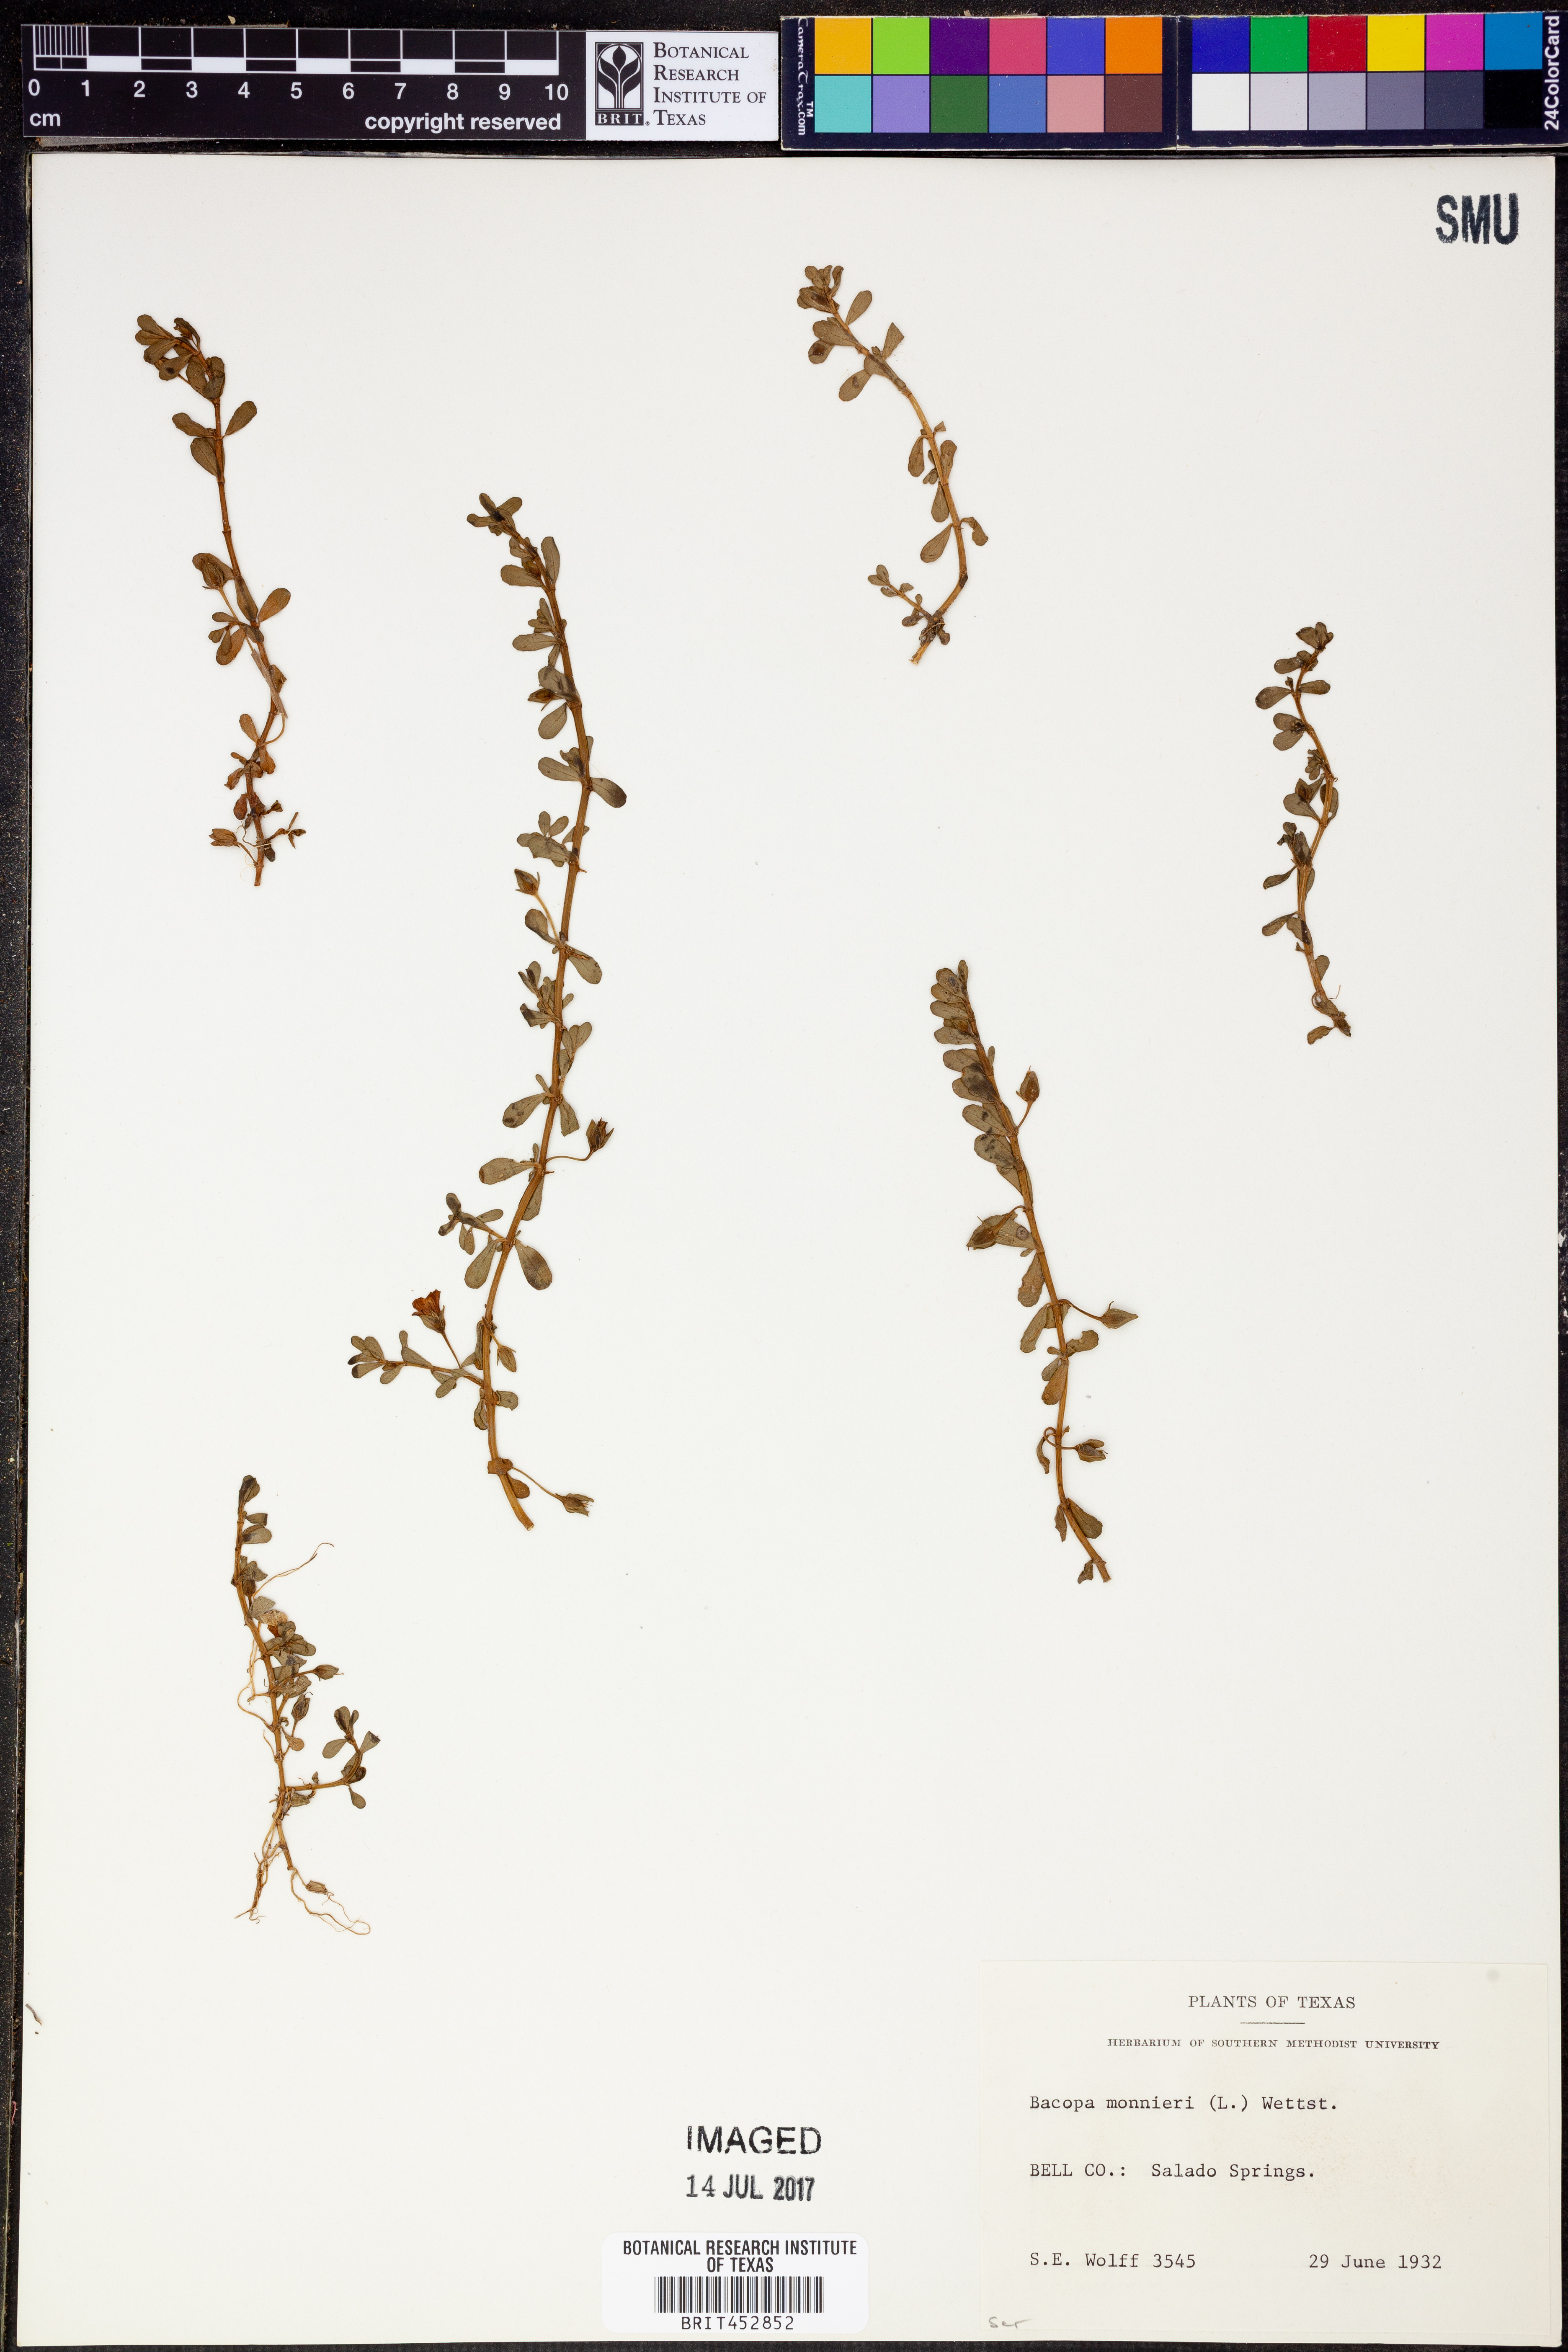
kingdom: Plantae
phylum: Tracheophyta
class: Magnoliopsida
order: Lamiales
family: Plantaginaceae
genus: Bacopa
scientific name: Bacopa monnieri
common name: Indian-pennywort
